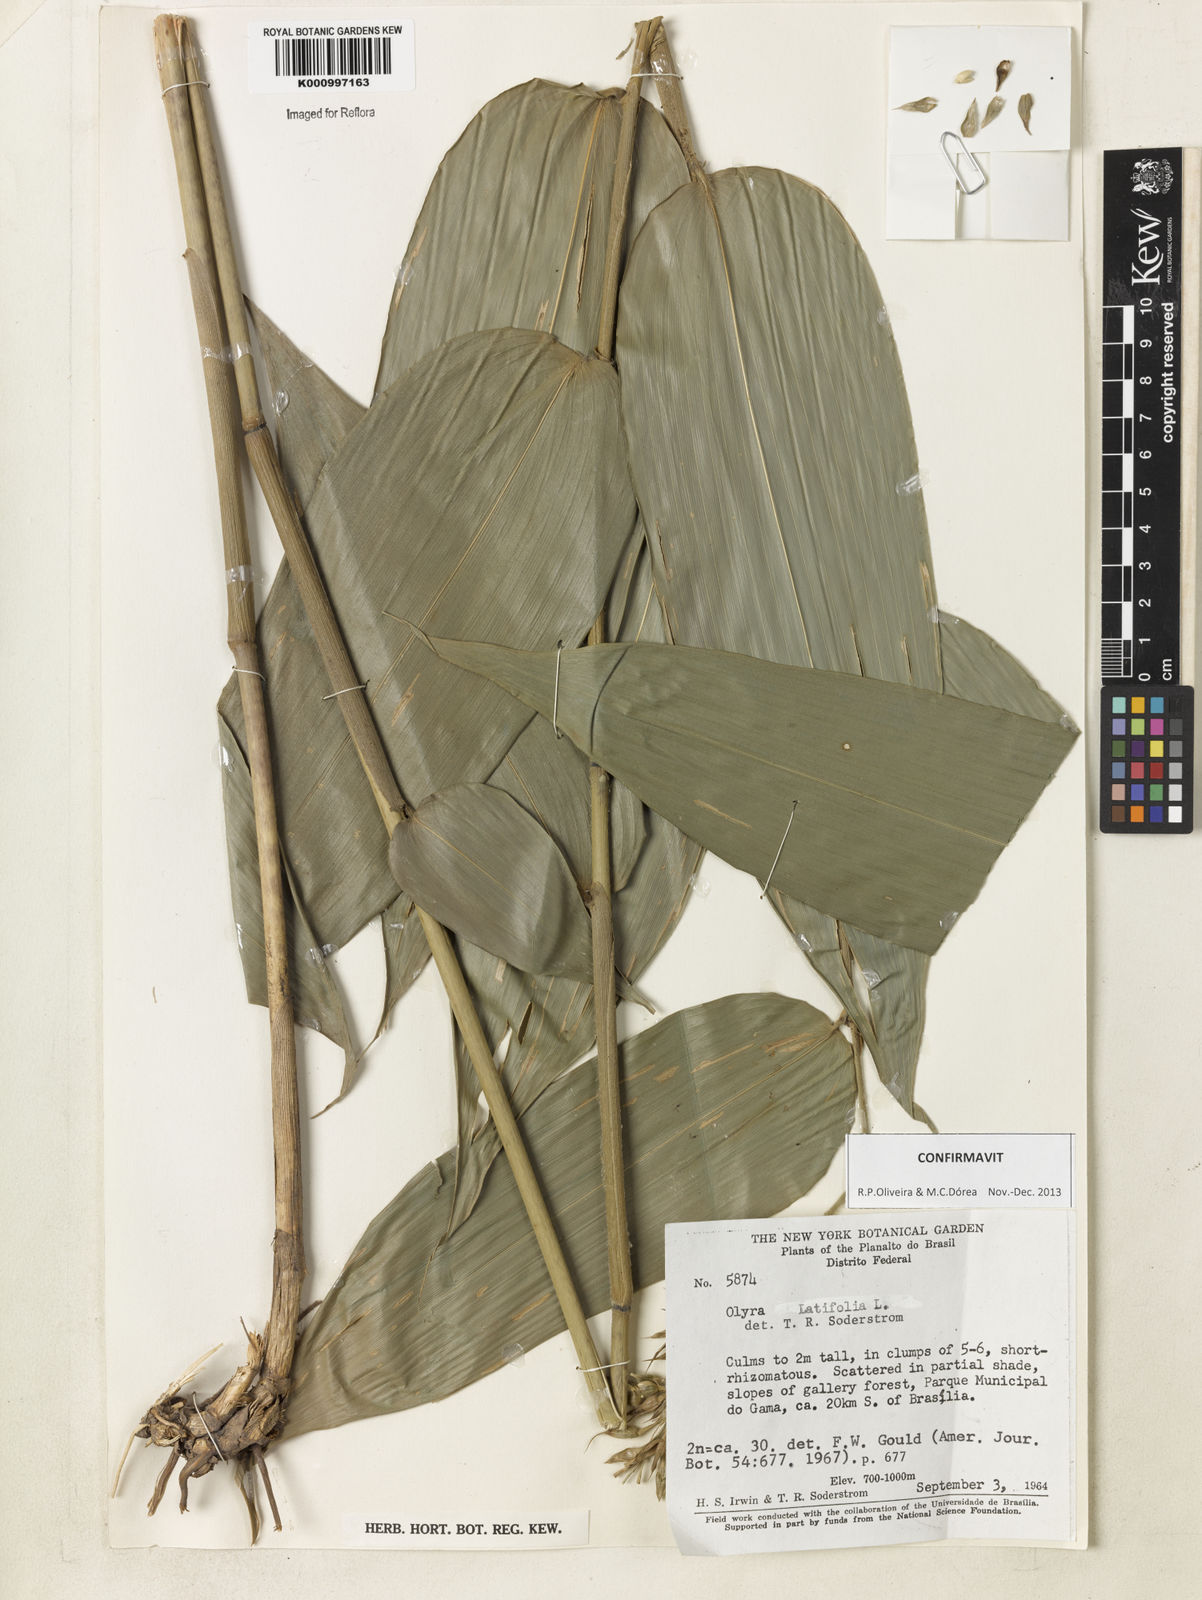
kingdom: Plantae
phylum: Tracheophyta
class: Liliopsida
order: Poales
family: Poaceae
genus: Olyra
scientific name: Olyra latifolia
